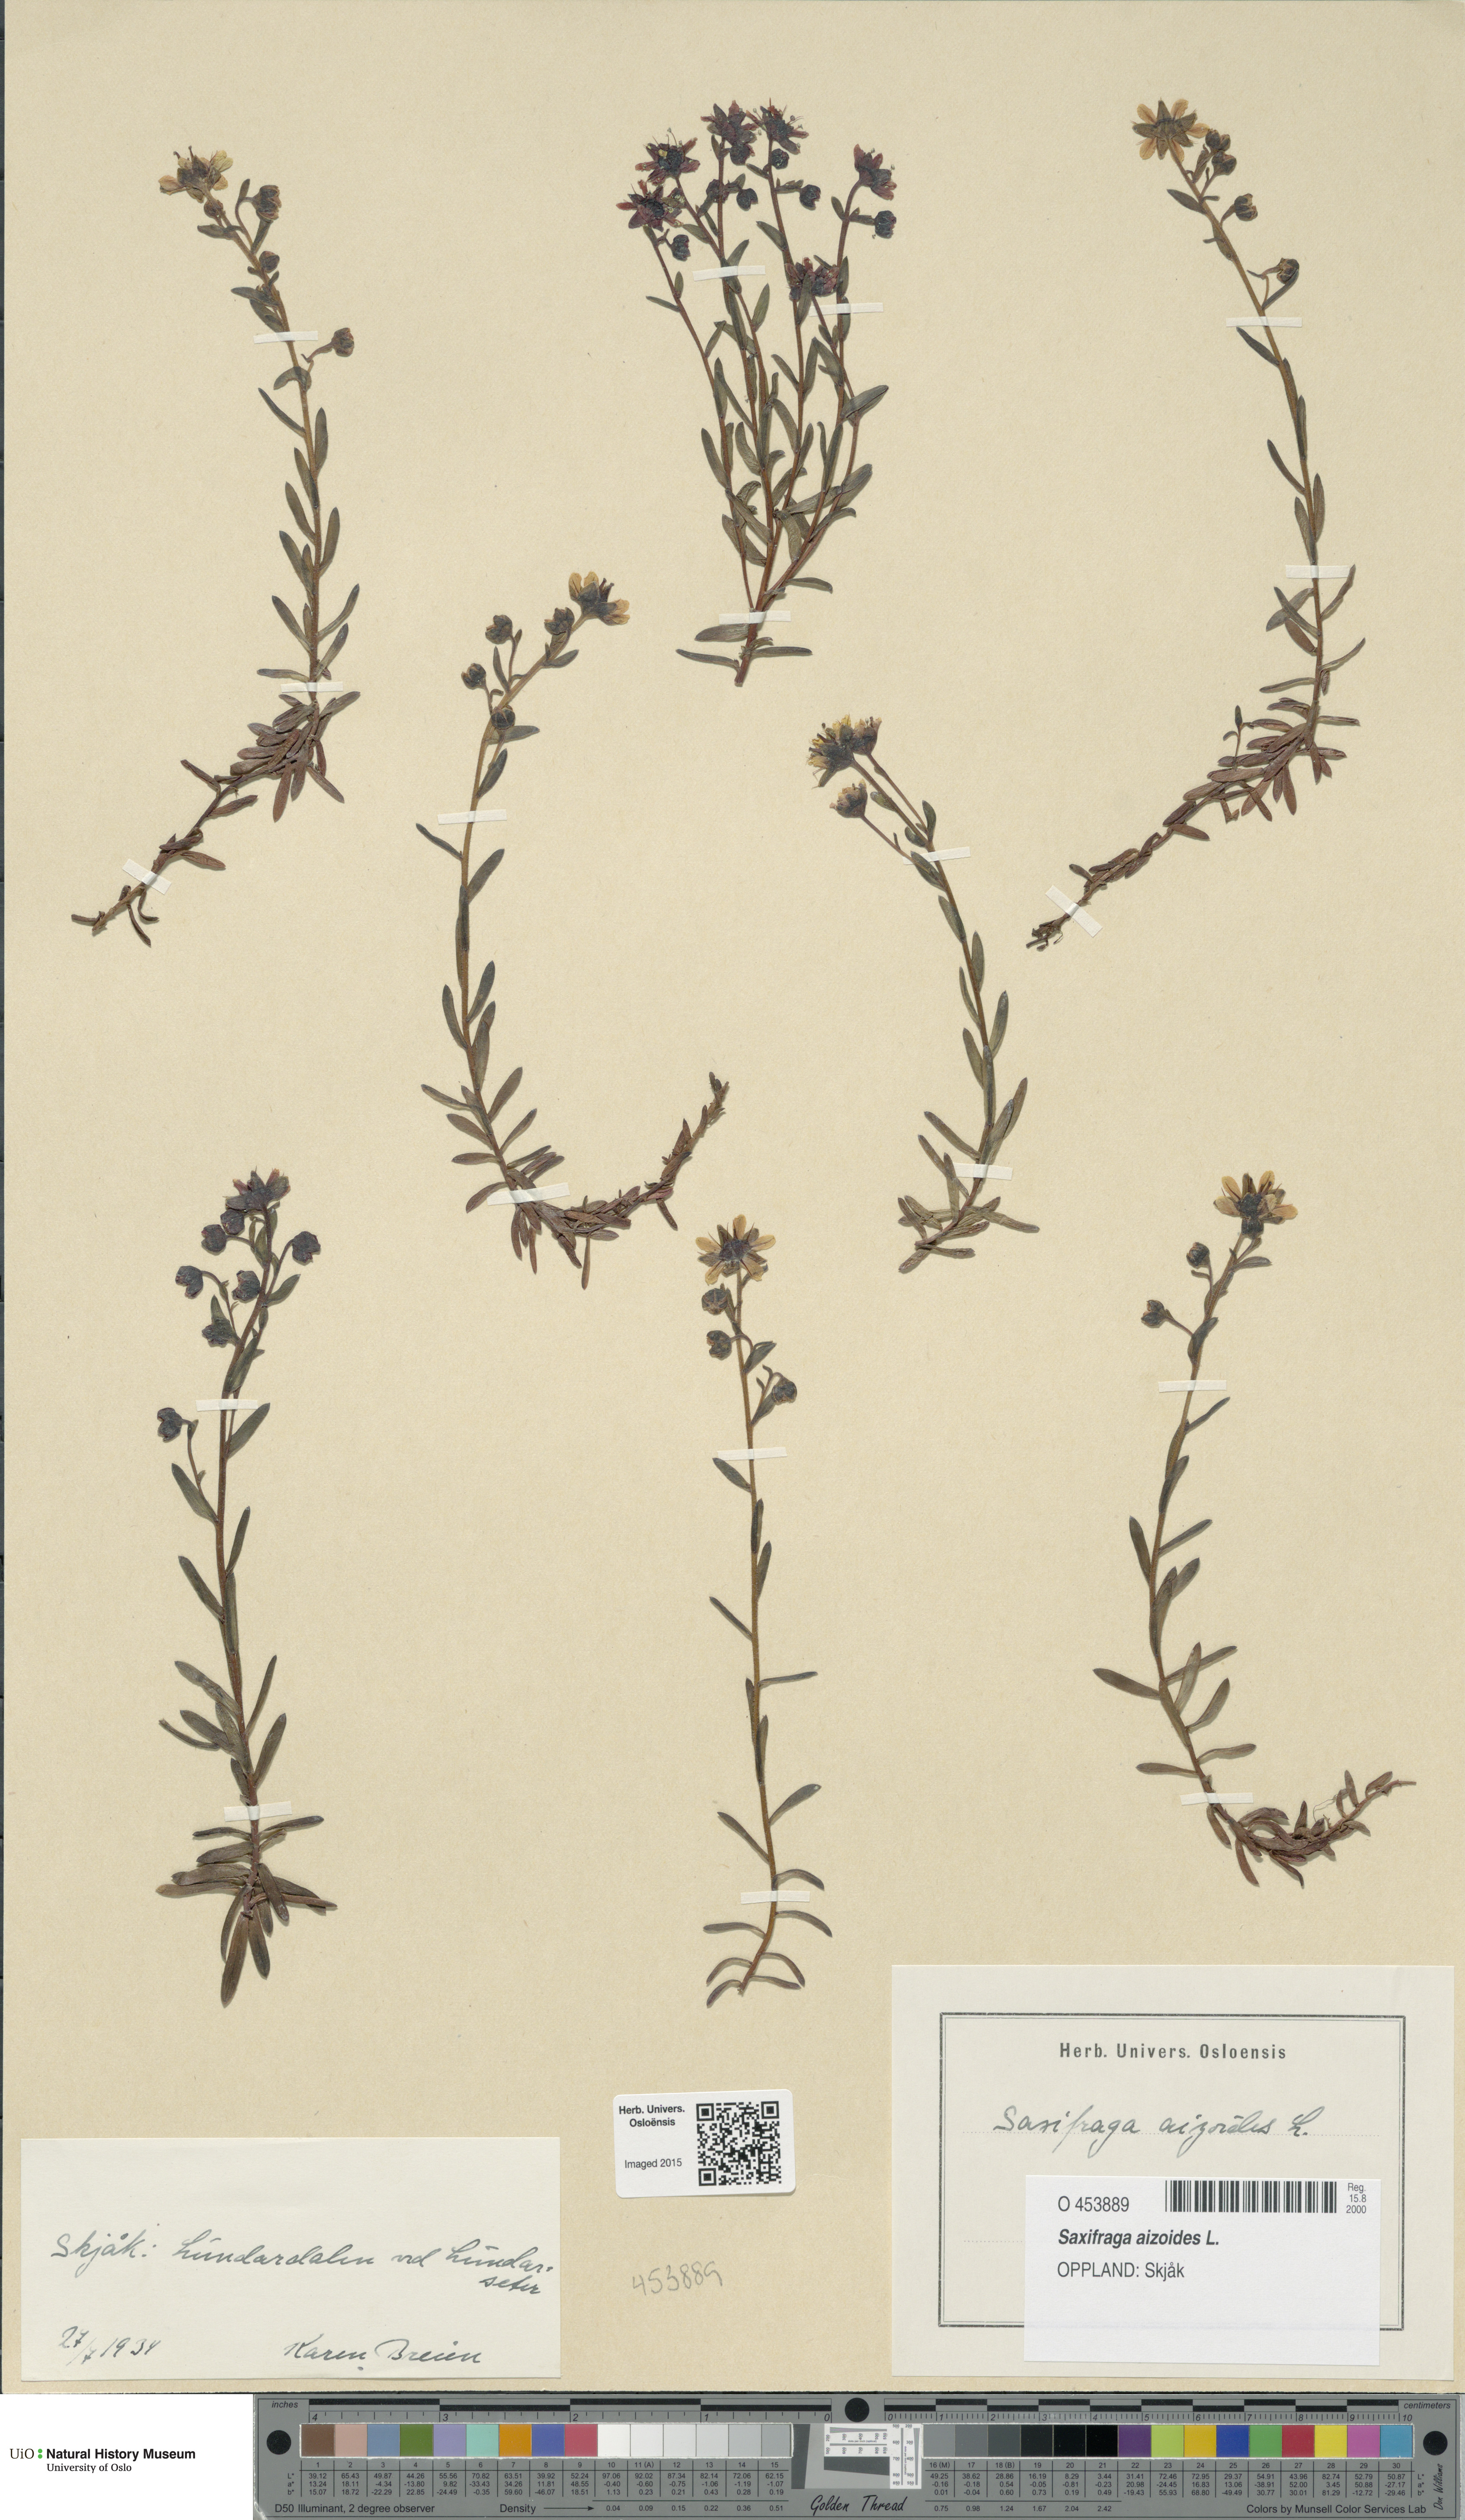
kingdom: Plantae
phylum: Tracheophyta
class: Magnoliopsida
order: Saxifragales
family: Saxifragaceae
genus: Saxifraga
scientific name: Saxifraga aizoides
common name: Yellow mountain saxifrage
